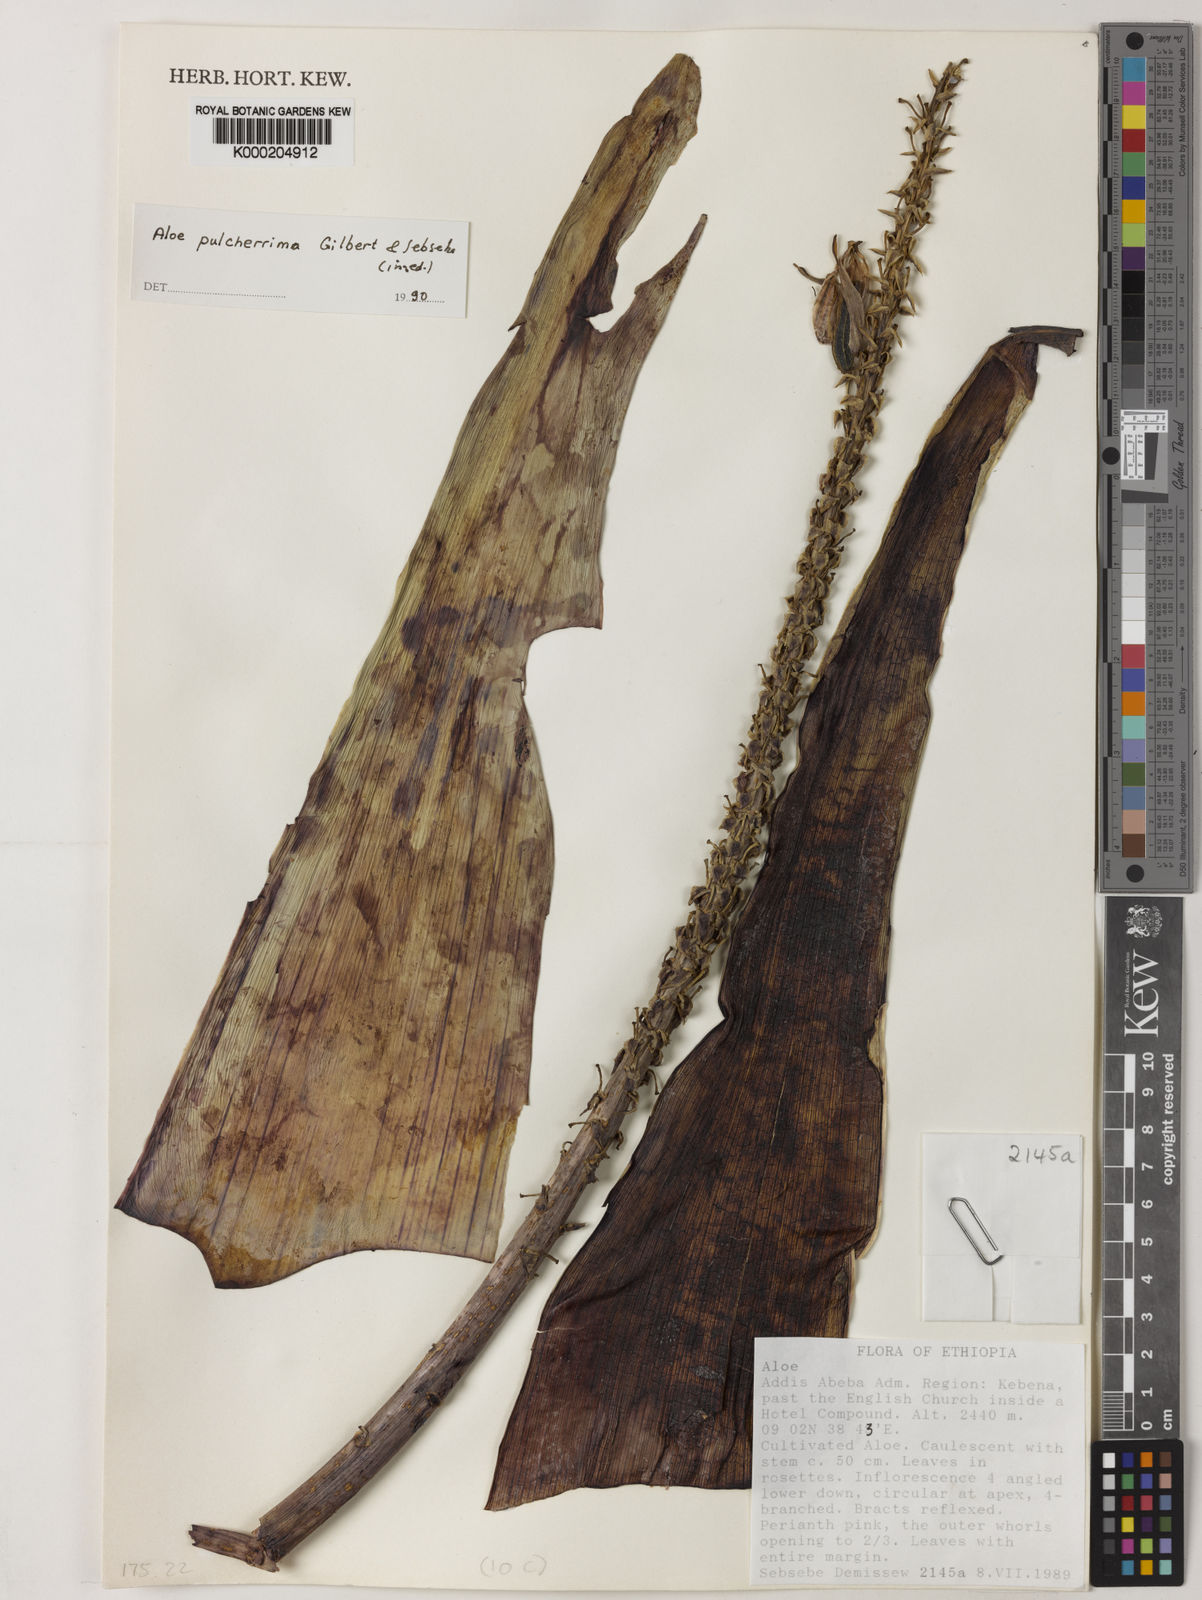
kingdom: Plantae
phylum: Tracheophyta
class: Liliopsida
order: Asparagales
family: Asphodelaceae
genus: Aloe
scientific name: Aloe pulcherrima
